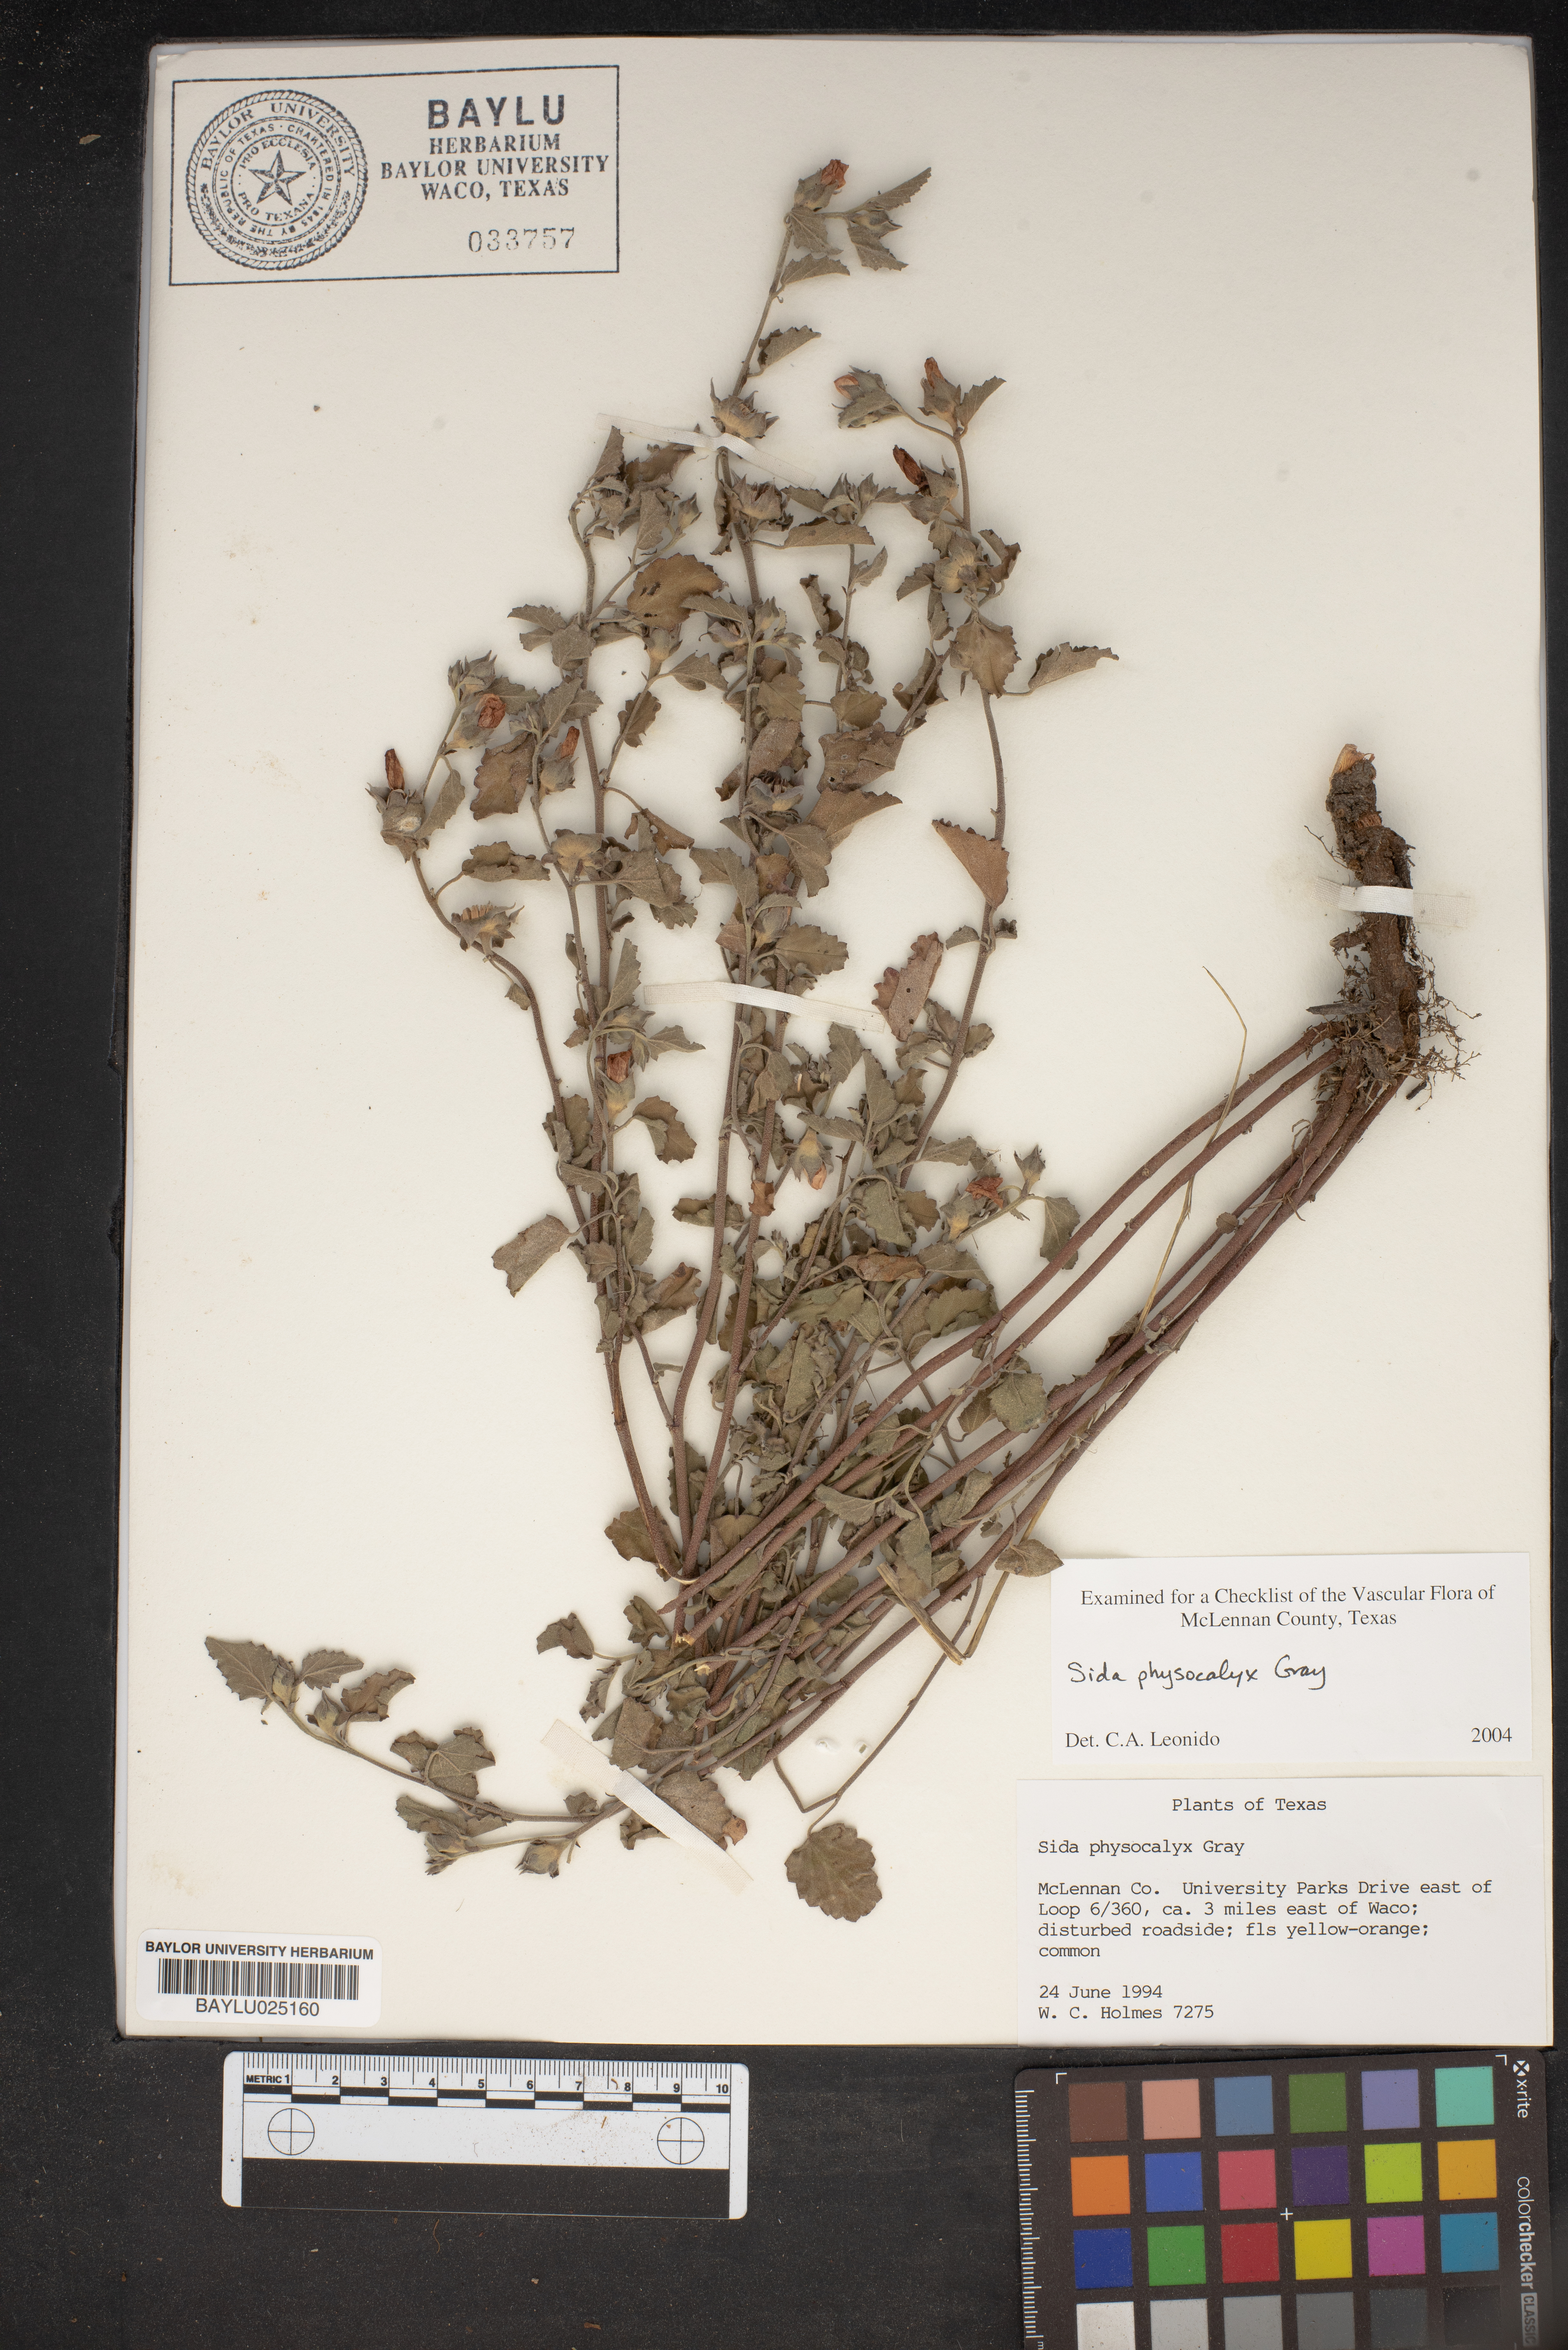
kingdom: Plantae
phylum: Tracheophyta
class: Magnoliopsida
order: Malvales
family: Malvaceae
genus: Rhynchosida
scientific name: Rhynchosida physocalyx
